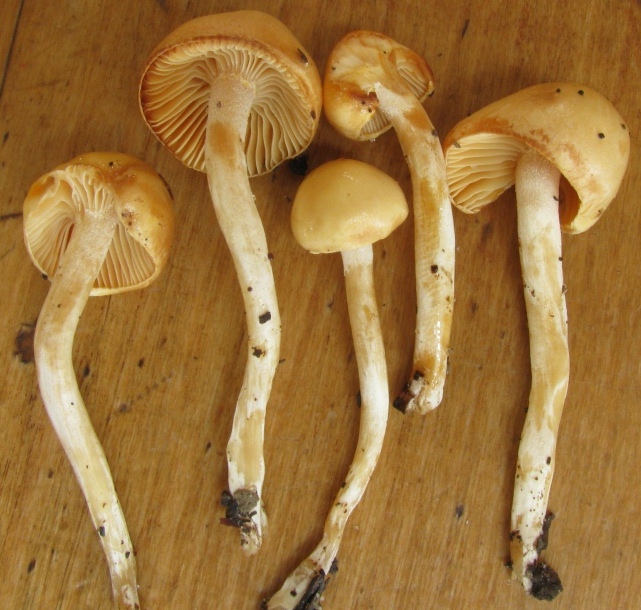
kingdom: Fungi
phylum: Basidiomycota
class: Agaricomycetes
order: Agaricales
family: Hygrophoraceae
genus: Hygrophorus
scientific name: Hygrophorus discoxanthus
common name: ildelugtende sneglehat
